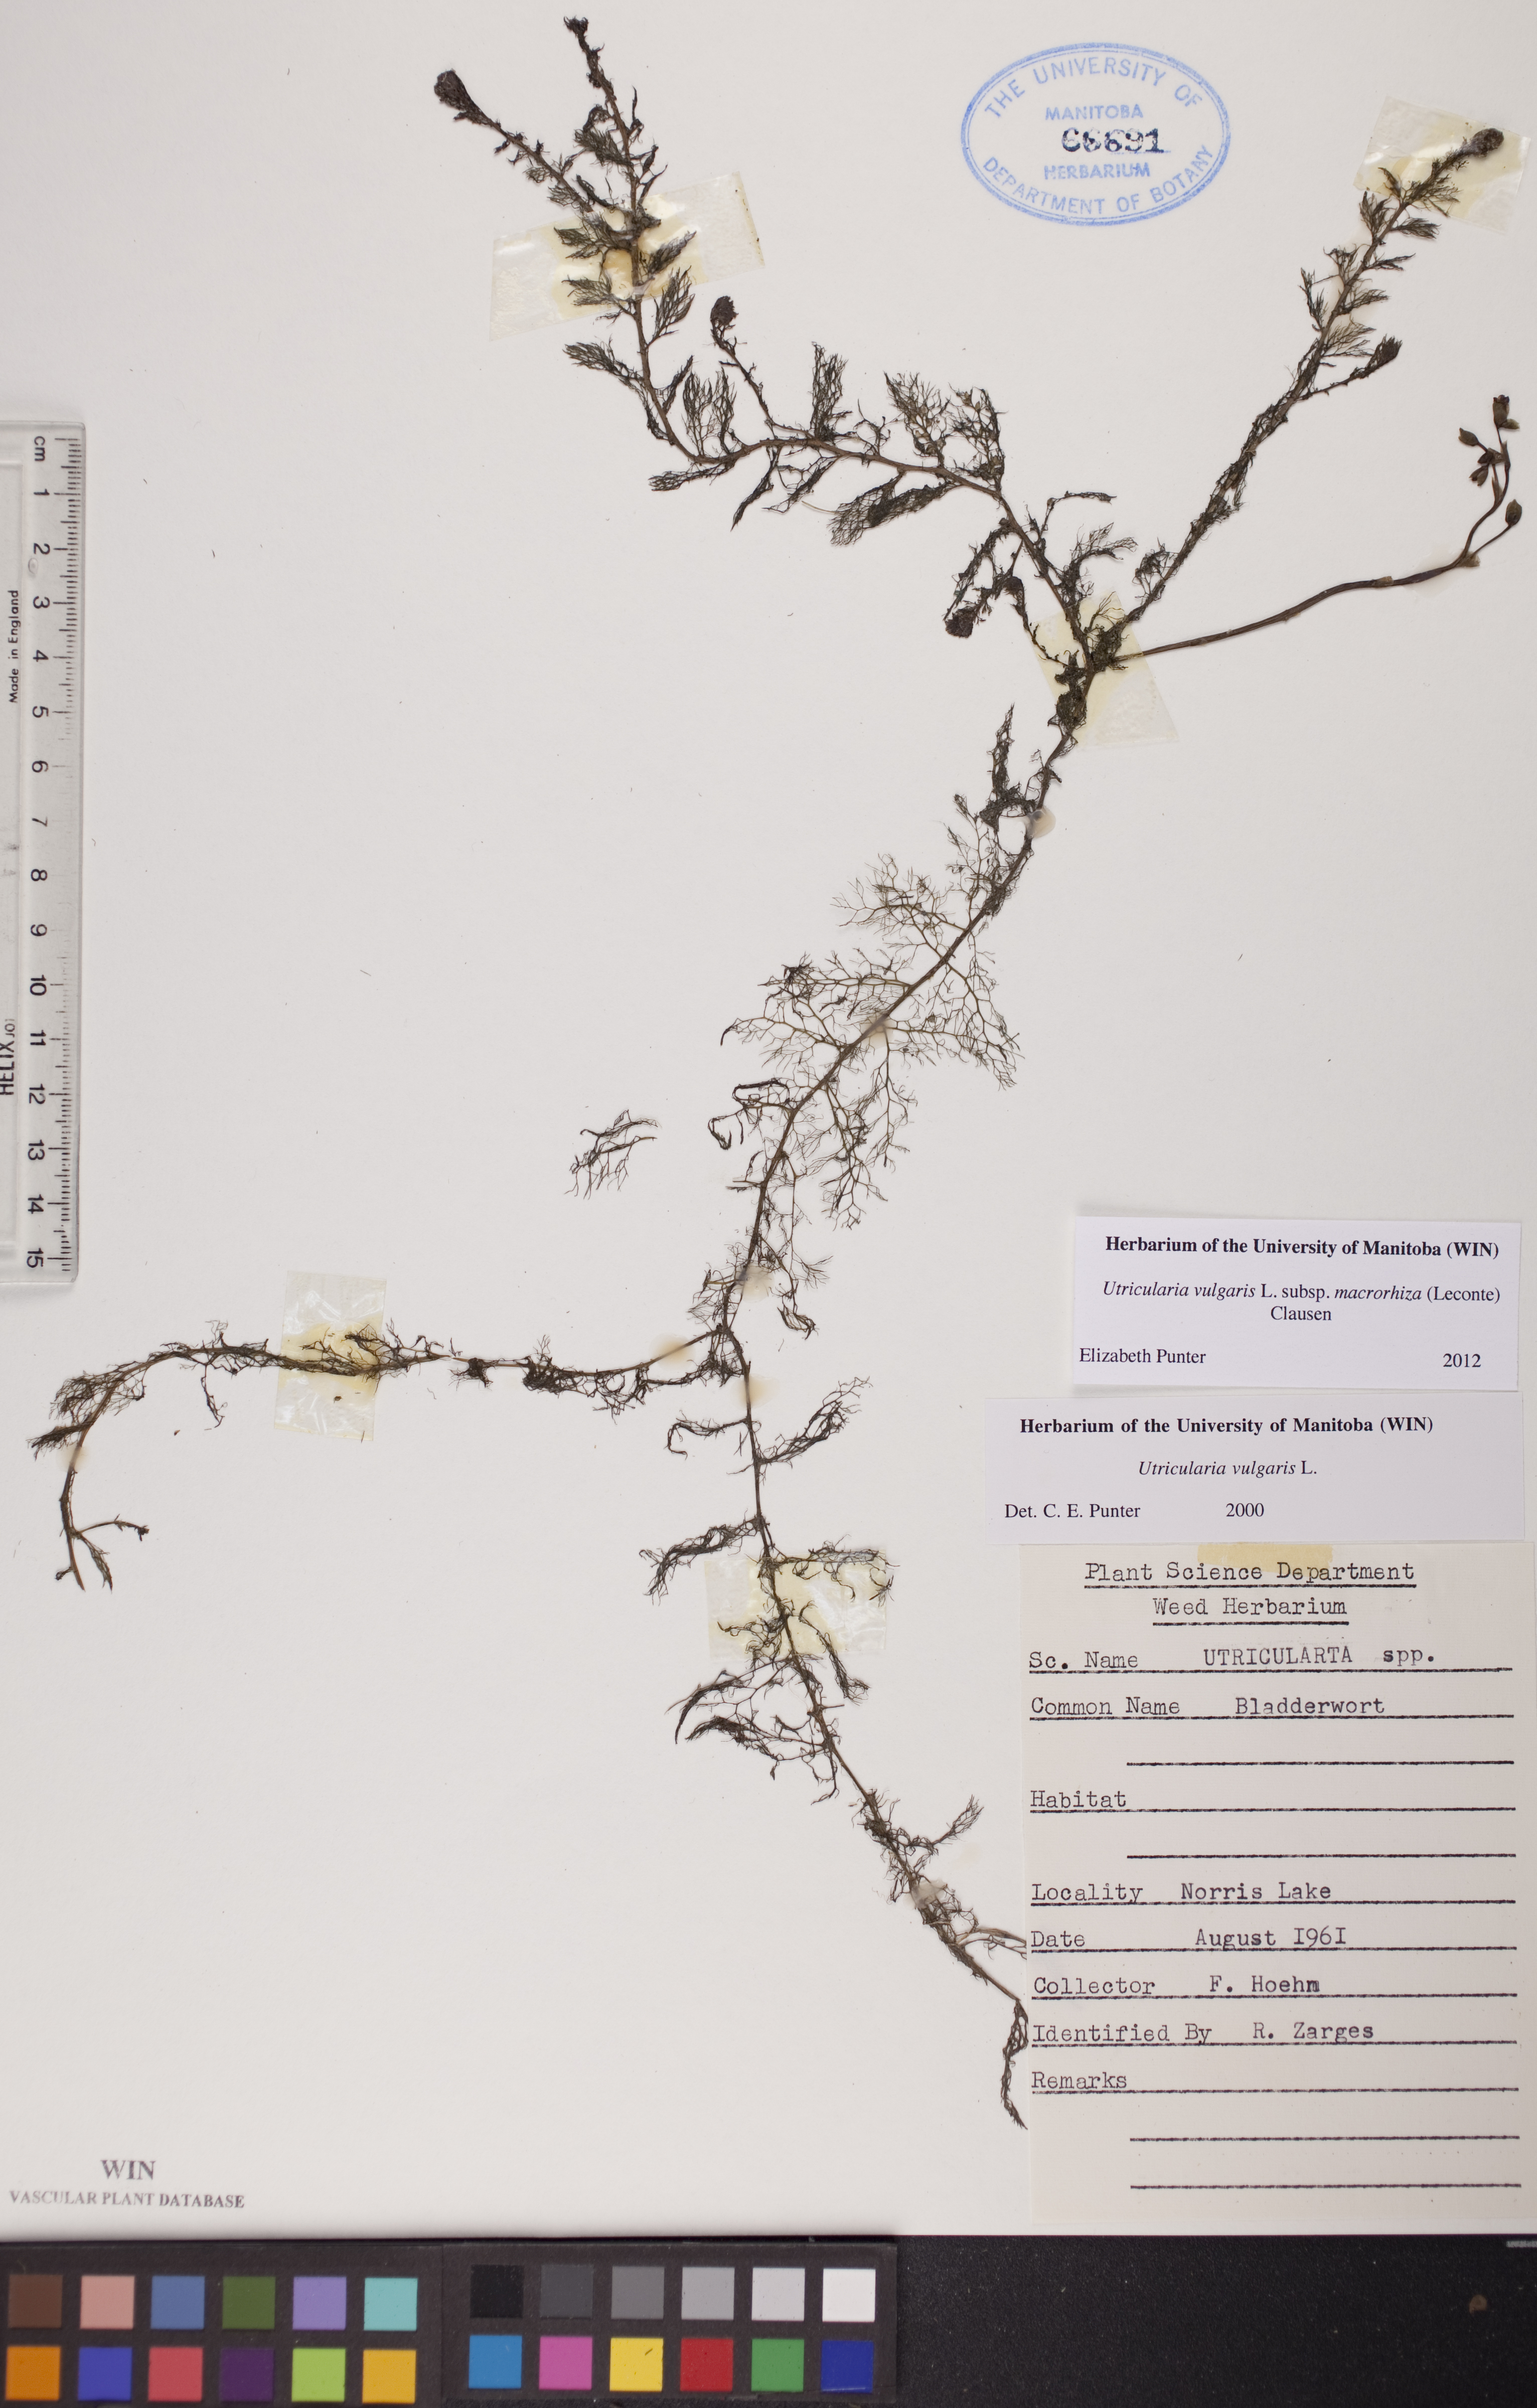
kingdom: Plantae
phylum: Tracheophyta
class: Magnoliopsida
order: Lamiales
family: Lentibulariaceae
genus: Utricularia
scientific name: Utricularia macrorhiza
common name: Common bladderwort
